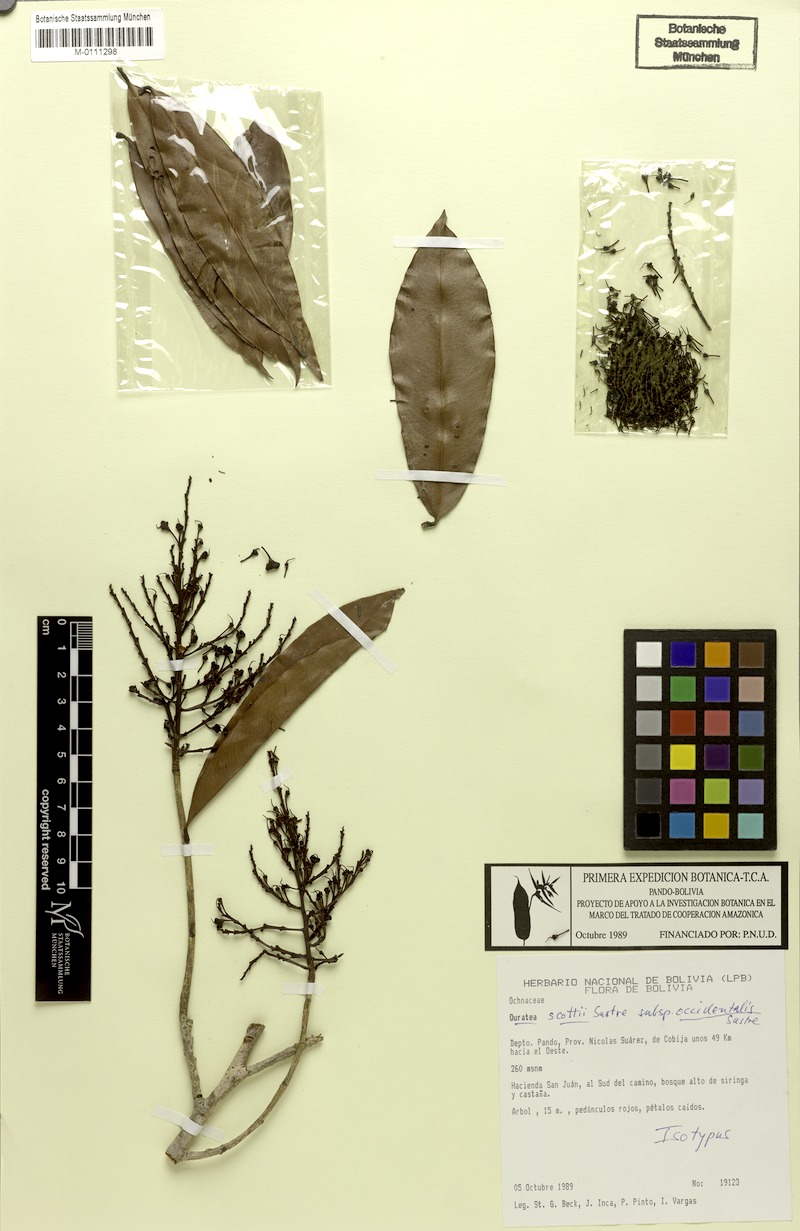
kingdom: Plantae
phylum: Tracheophyta
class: Magnoliopsida
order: Malpighiales
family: Ochnaceae
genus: Ouratea
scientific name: Ouratea scottii
